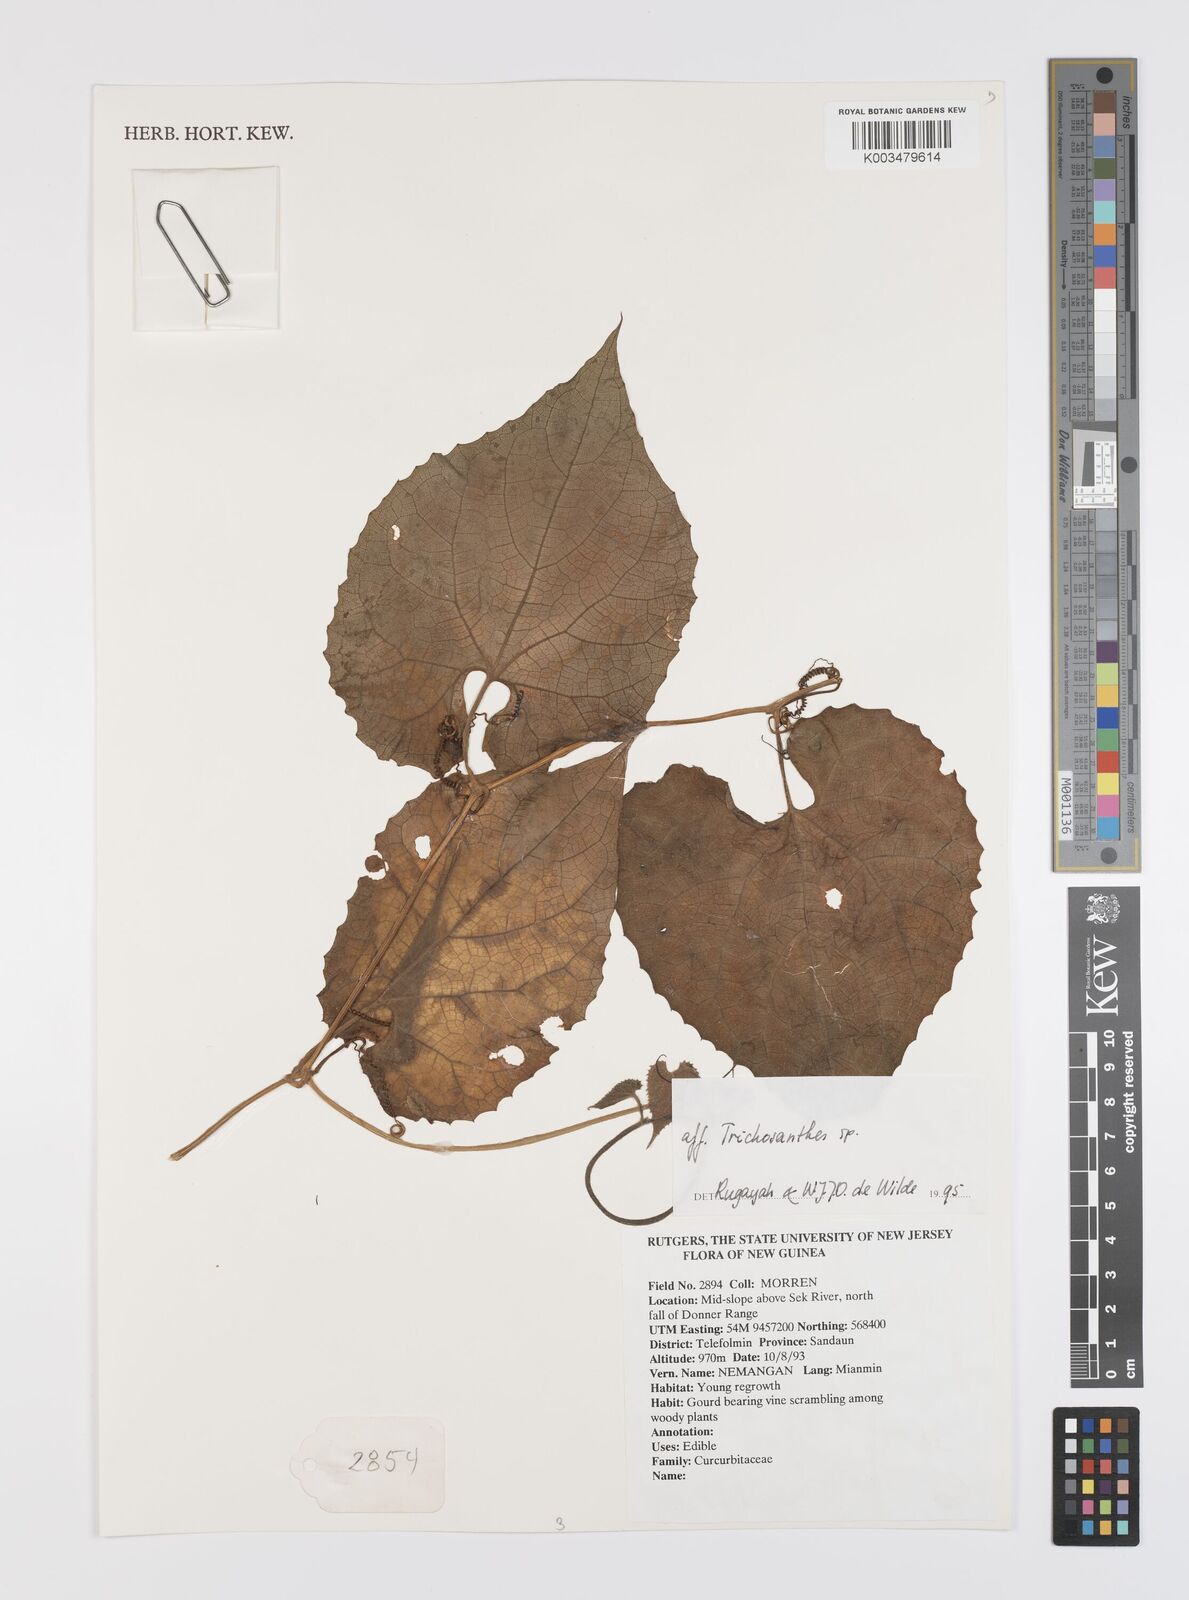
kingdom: Plantae
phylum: Tracheophyta
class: Magnoliopsida
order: Cucurbitales
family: Cucurbitaceae
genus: Trichosanthes
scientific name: Trichosanthes
